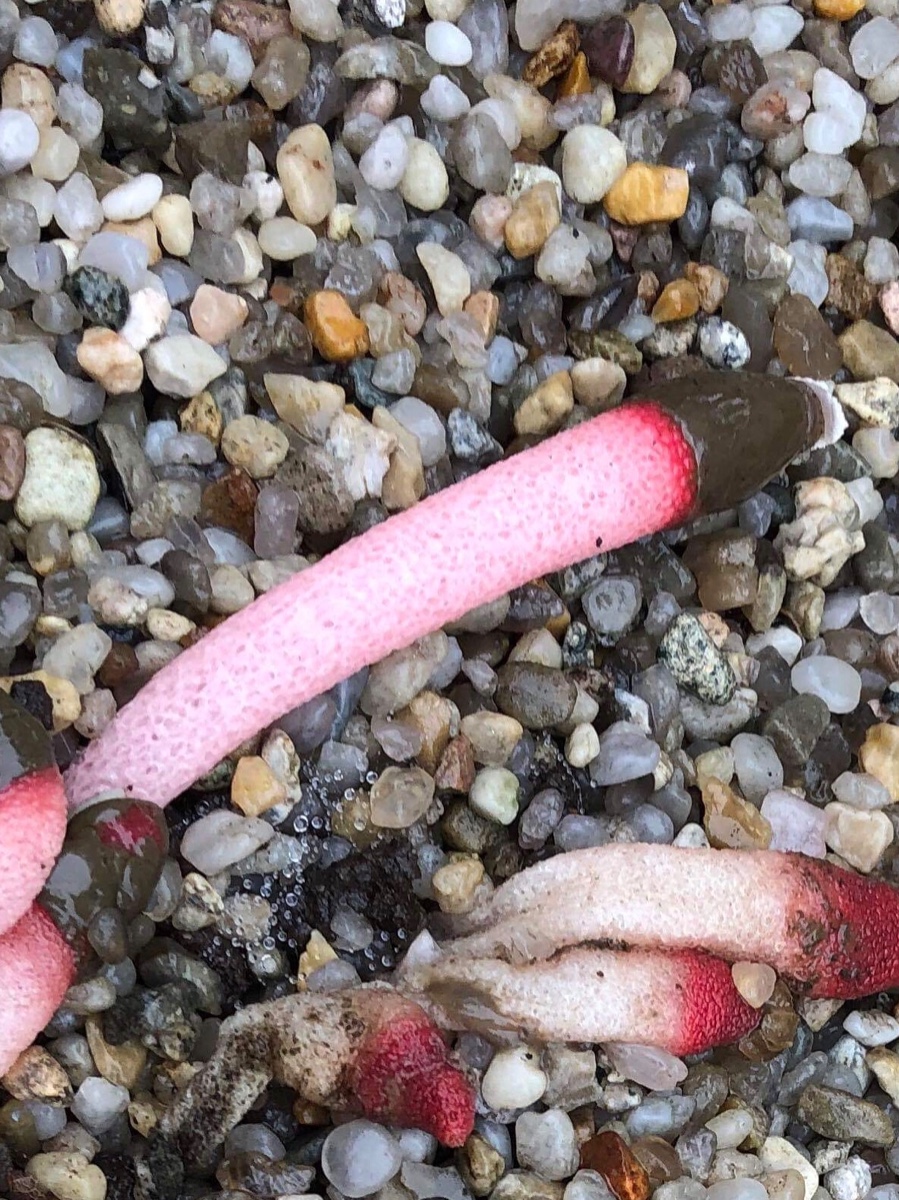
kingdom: Fungi
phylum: Basidiomycota
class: Agaricomycetes
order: Phallales
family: Phallaceae
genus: Mutinus
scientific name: Mutinus ravenelii
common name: rød stinksvamp
